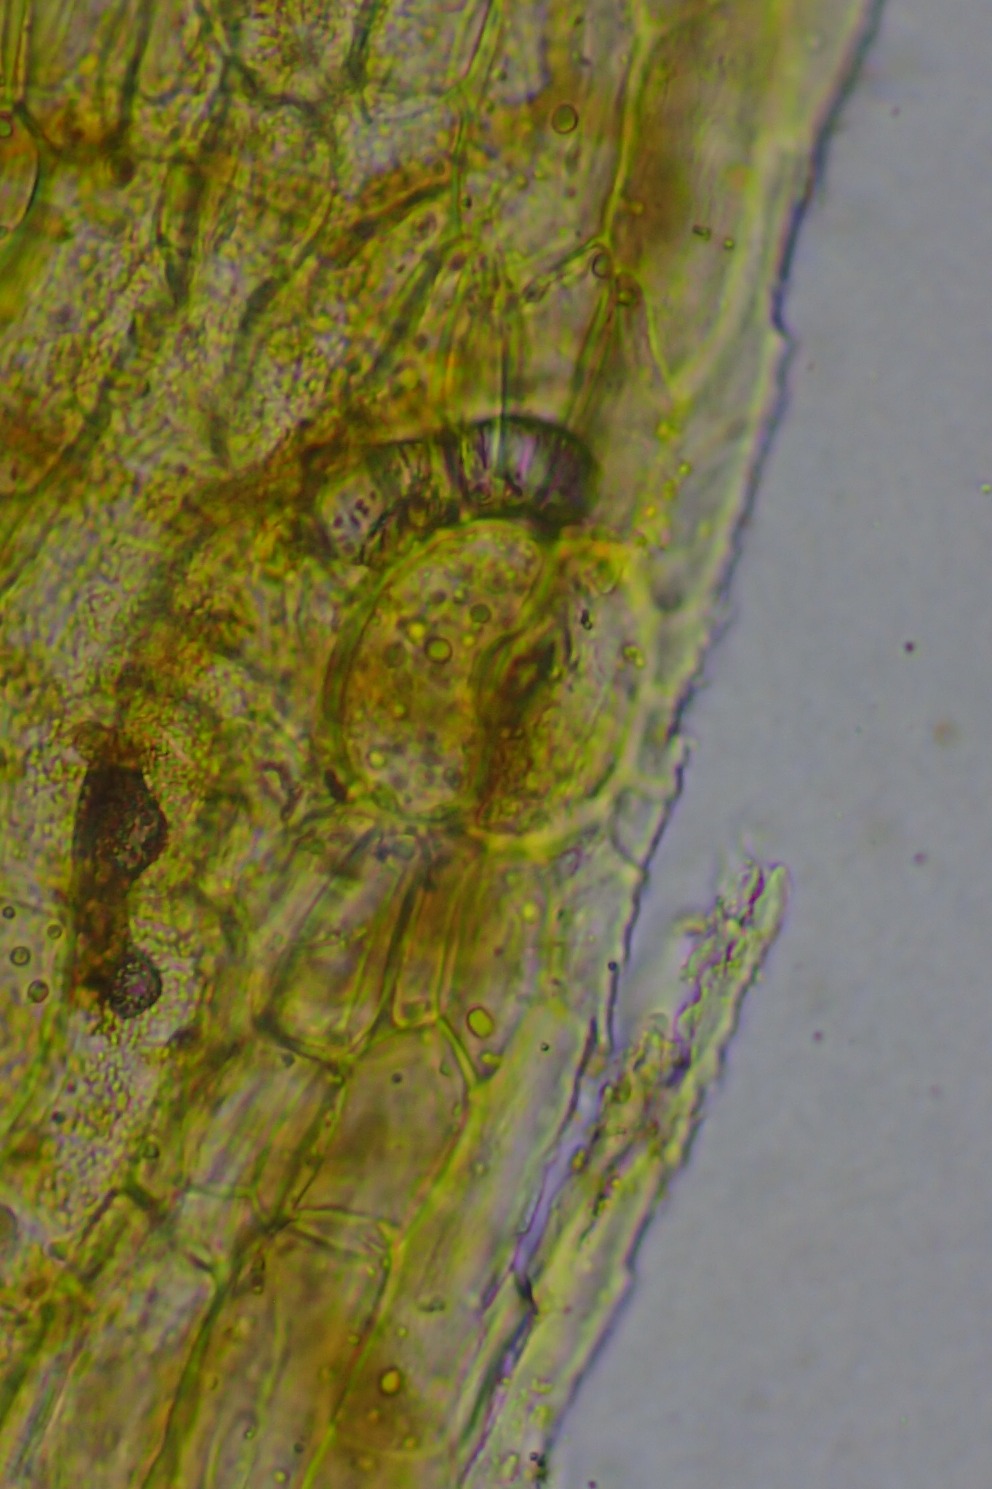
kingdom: Plantae
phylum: Bryophyta
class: Bryopsida
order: Orthotrichales
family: Orthotrichaceae
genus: Lewinskya
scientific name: Lewinskya striata
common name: Glatkapslet furehætte
